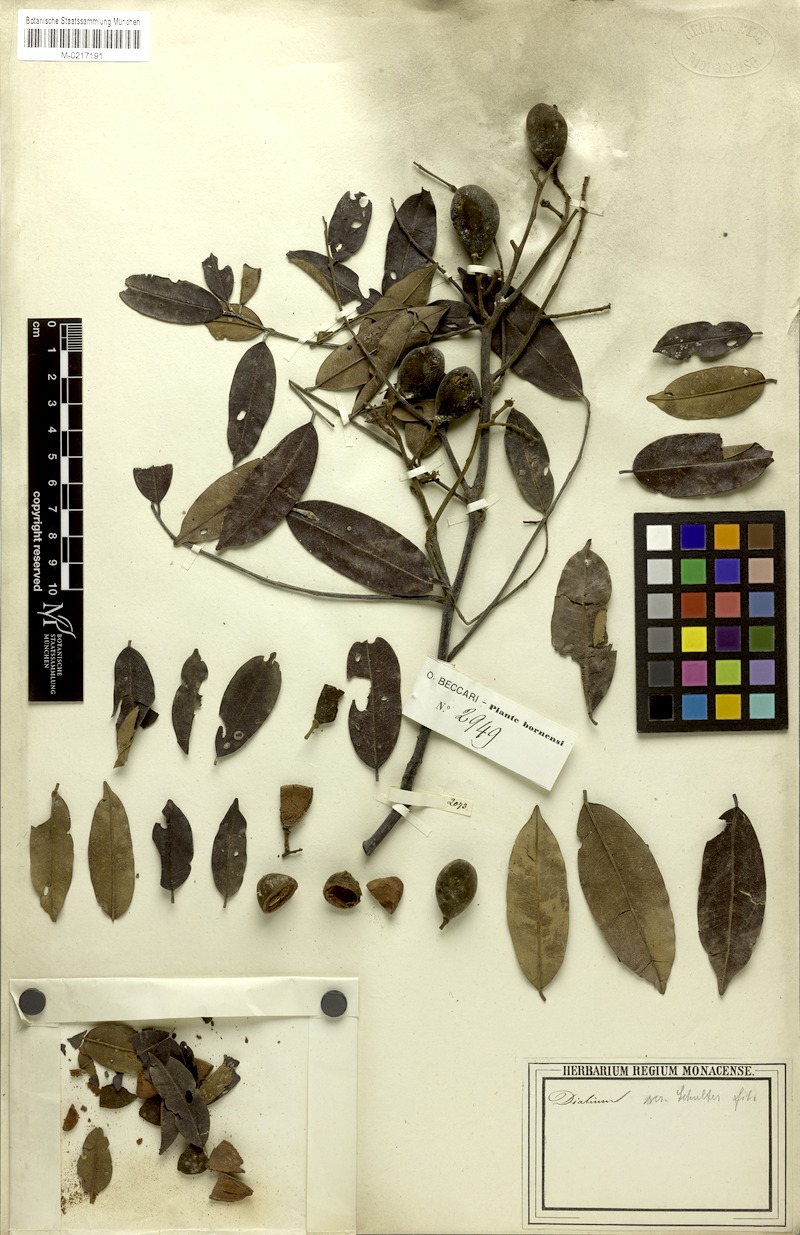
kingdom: Plantae
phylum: Tracheophyta
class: Magnoliopsida
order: Fabales
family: Fabaceae
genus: Dialium
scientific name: Dialium platysepalum
